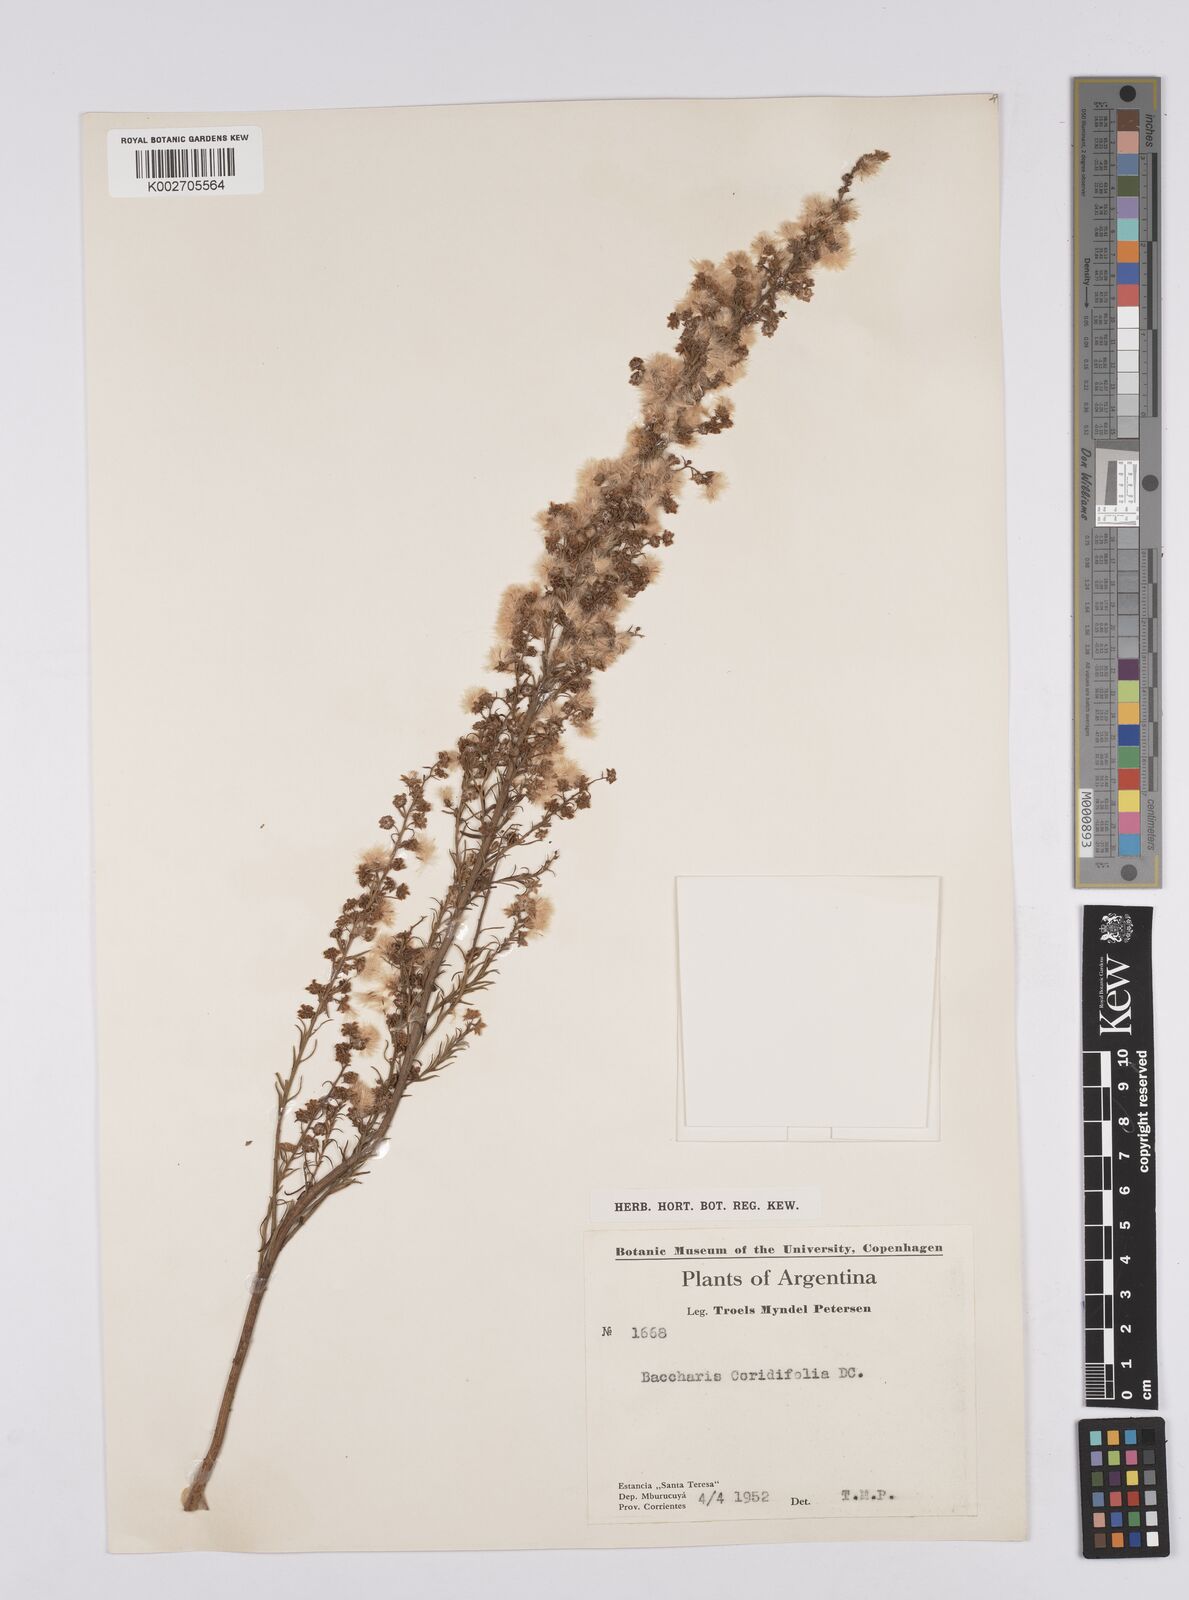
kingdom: Plantae
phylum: Tracheophyta
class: Magnoliopsida
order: Asterales
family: Asteraceae
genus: Baccharis
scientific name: Baccharis salicifolia
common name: Sticky baccharis
